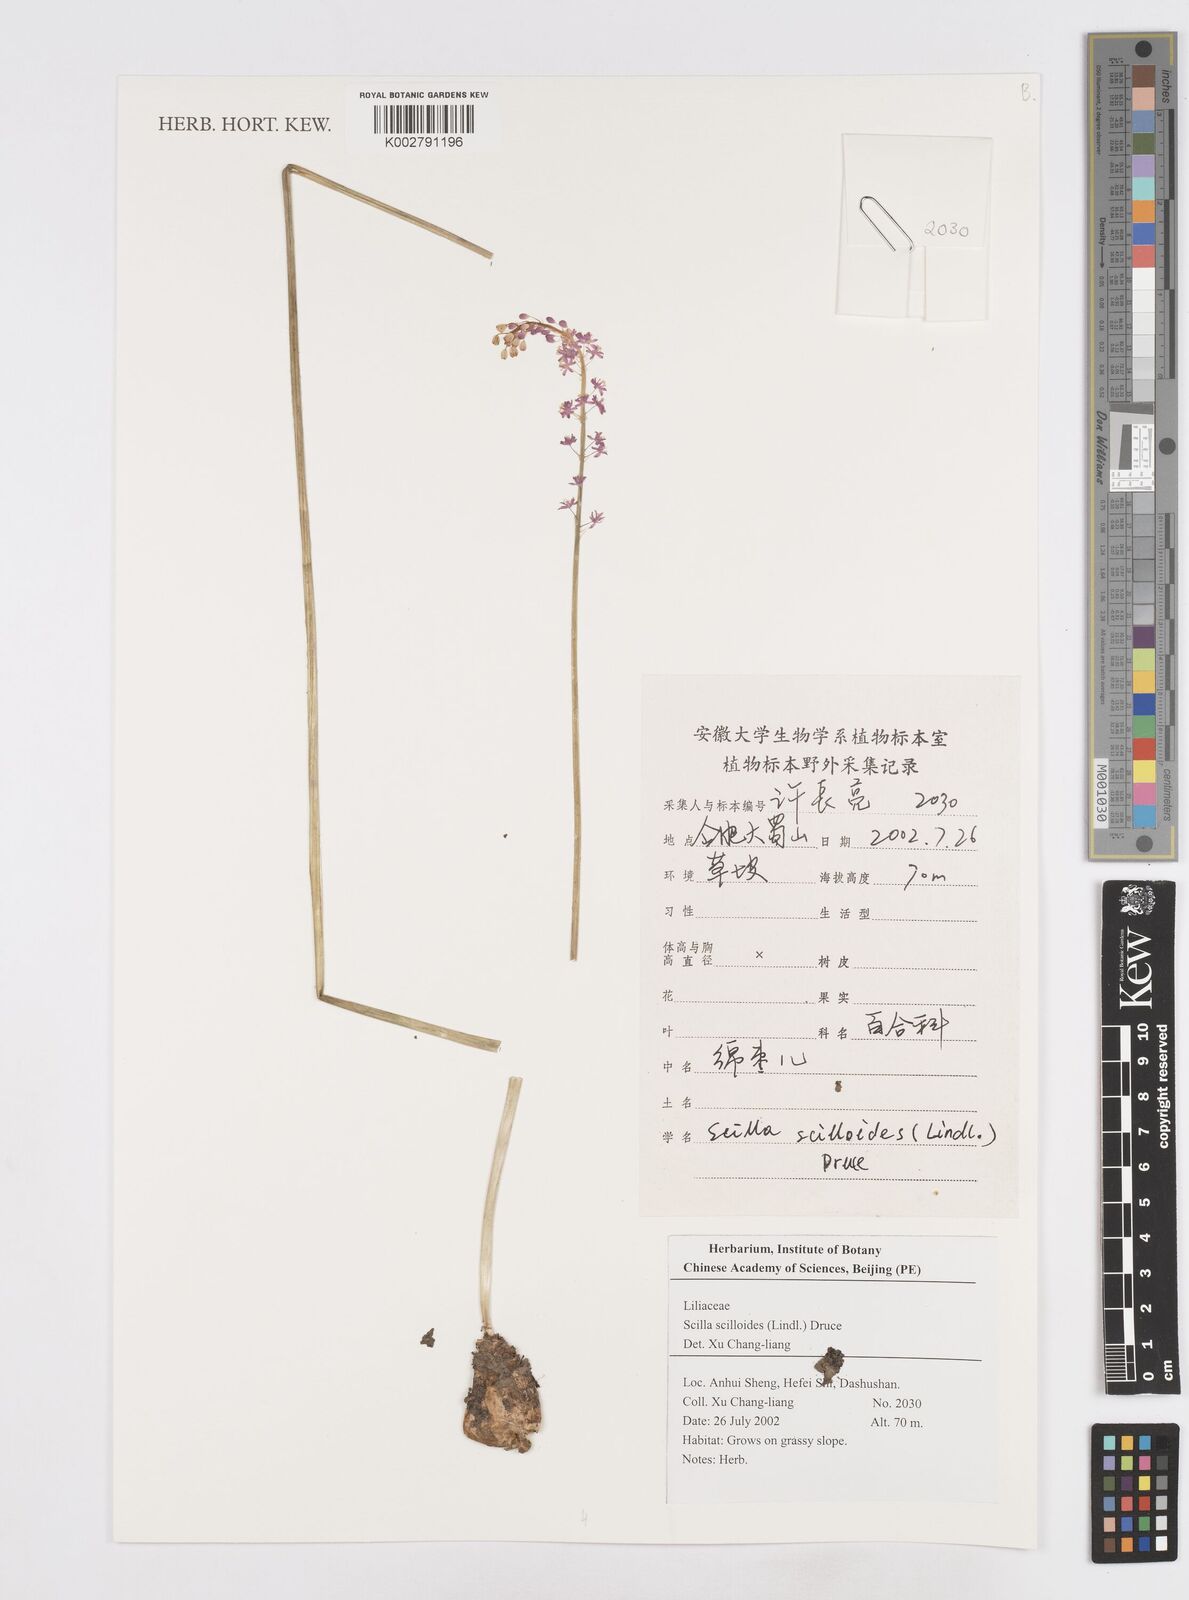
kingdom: Plantae
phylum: Tracheophyta
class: Liliopsida
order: Asparagales
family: Asparagaceae
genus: Barnardia
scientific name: Barnardia japonica
